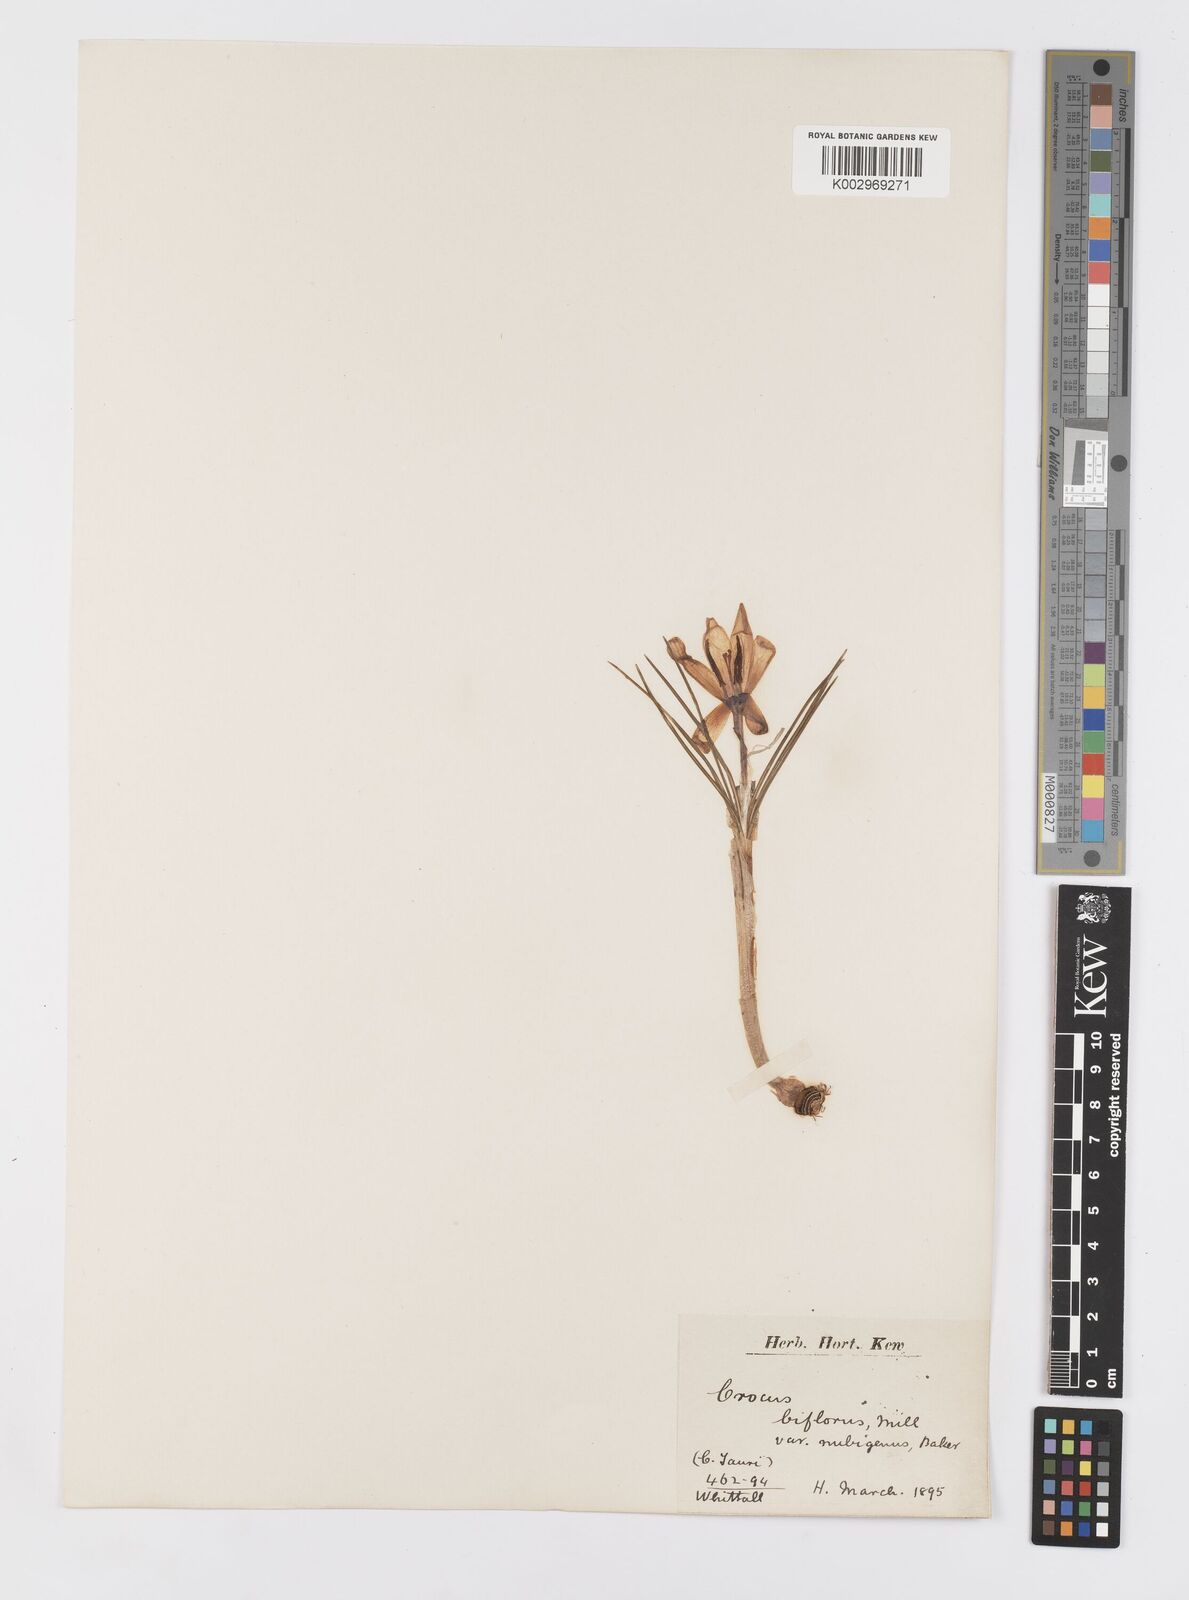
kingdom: Plantae
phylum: Tracheophyta
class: Liliopsida
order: Asparagales
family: Iridaceae
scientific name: Iridaceae
